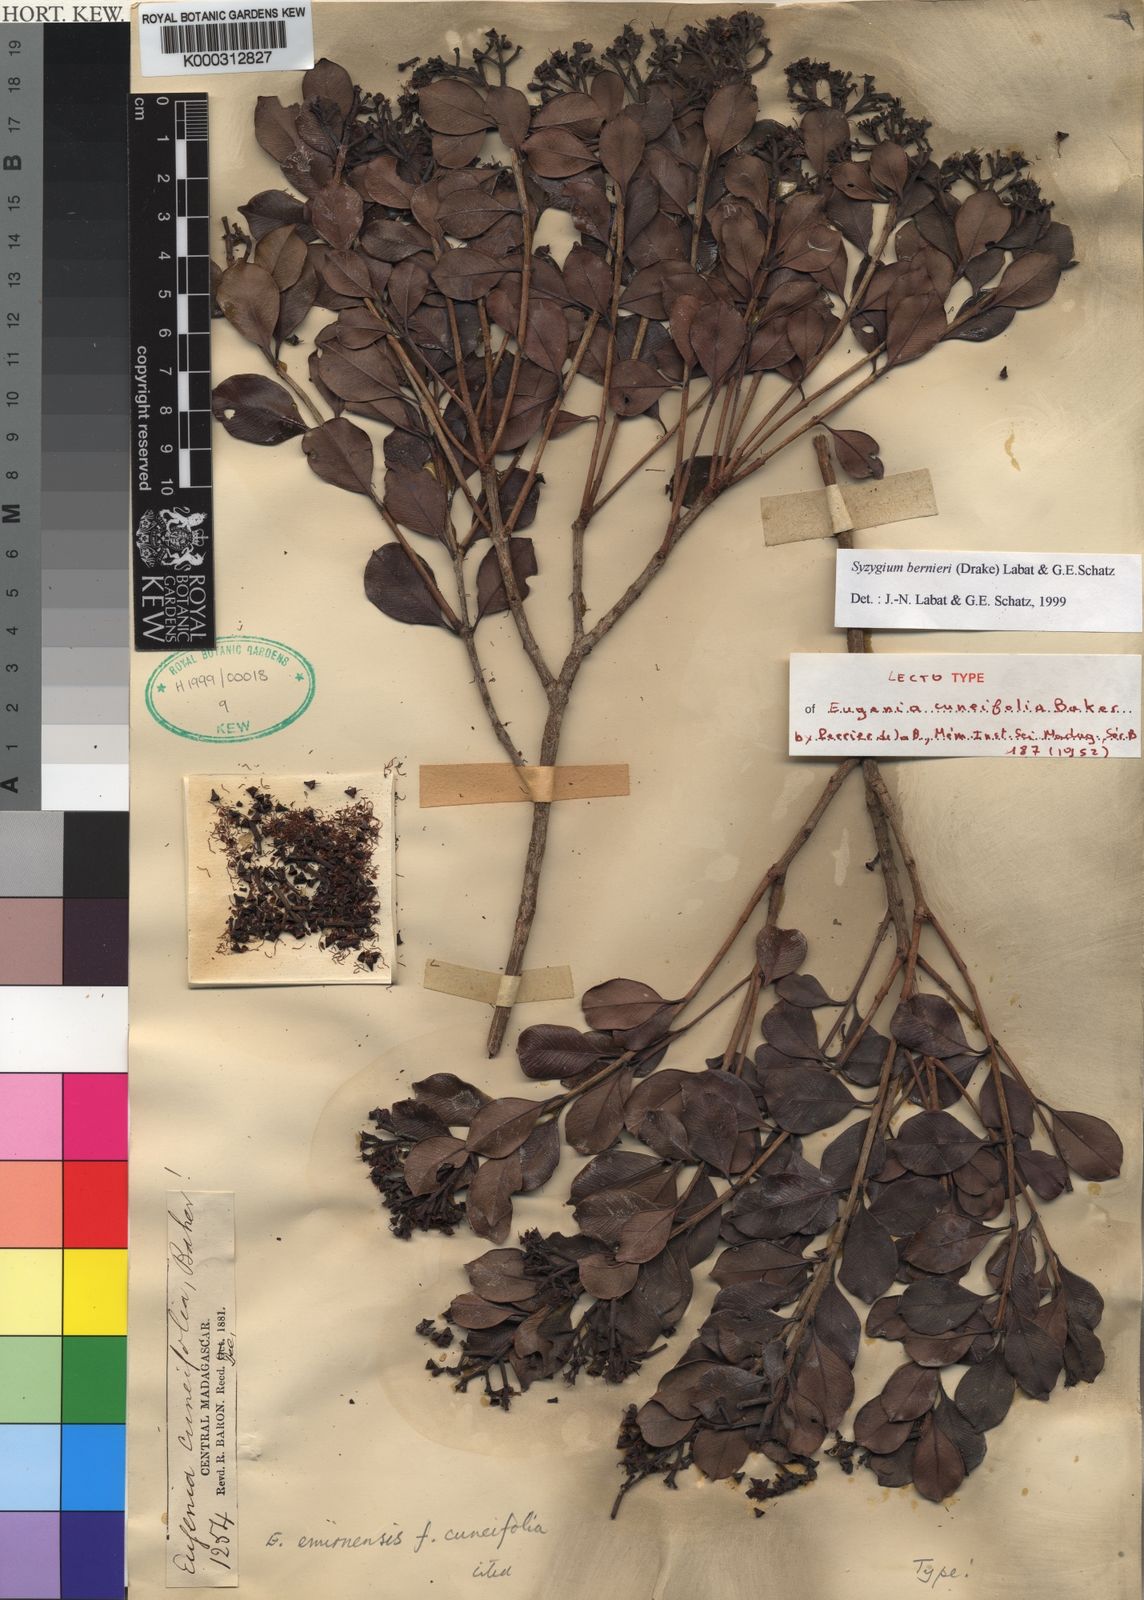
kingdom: Plantae
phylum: Tracheophyta
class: Magnoliopsida
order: Myrtales
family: Myrtaceae
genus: Syzygium
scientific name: Syzygium
